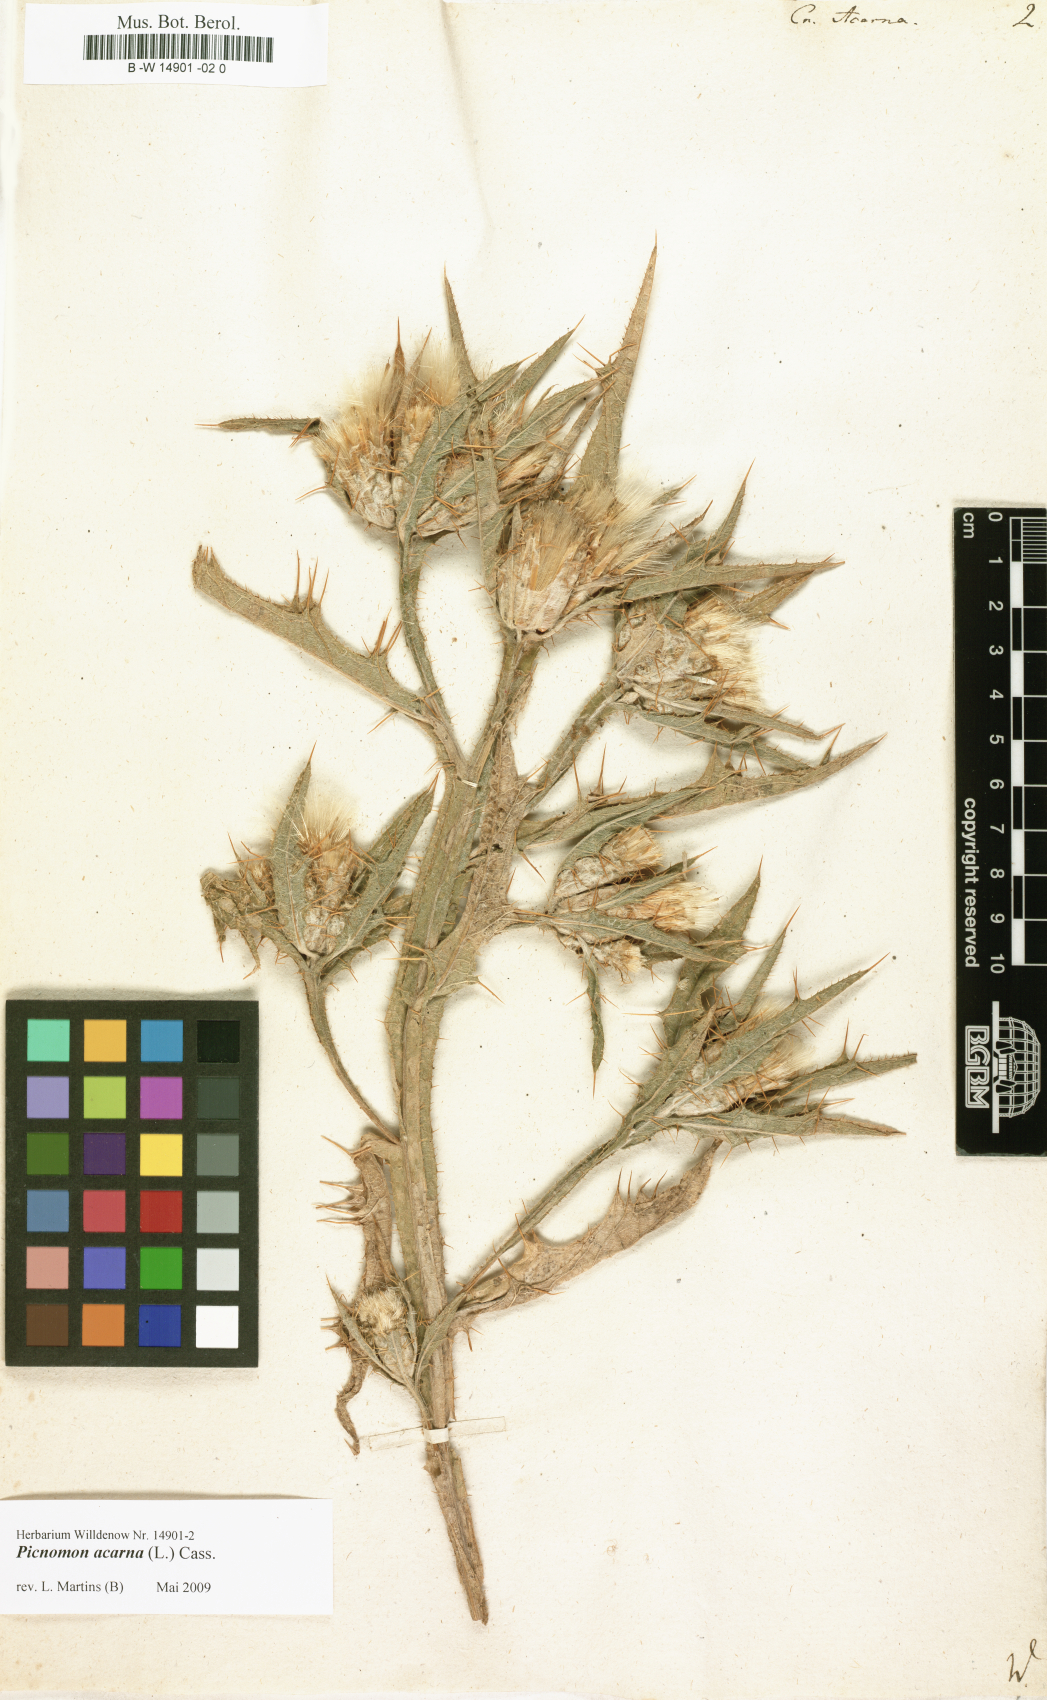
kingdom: Plantae
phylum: Tracheophyta
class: Magnoliopsida
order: Asterales
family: Asteraceae
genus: Picnomon
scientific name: Picnomon acarna
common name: Soldier thistle
